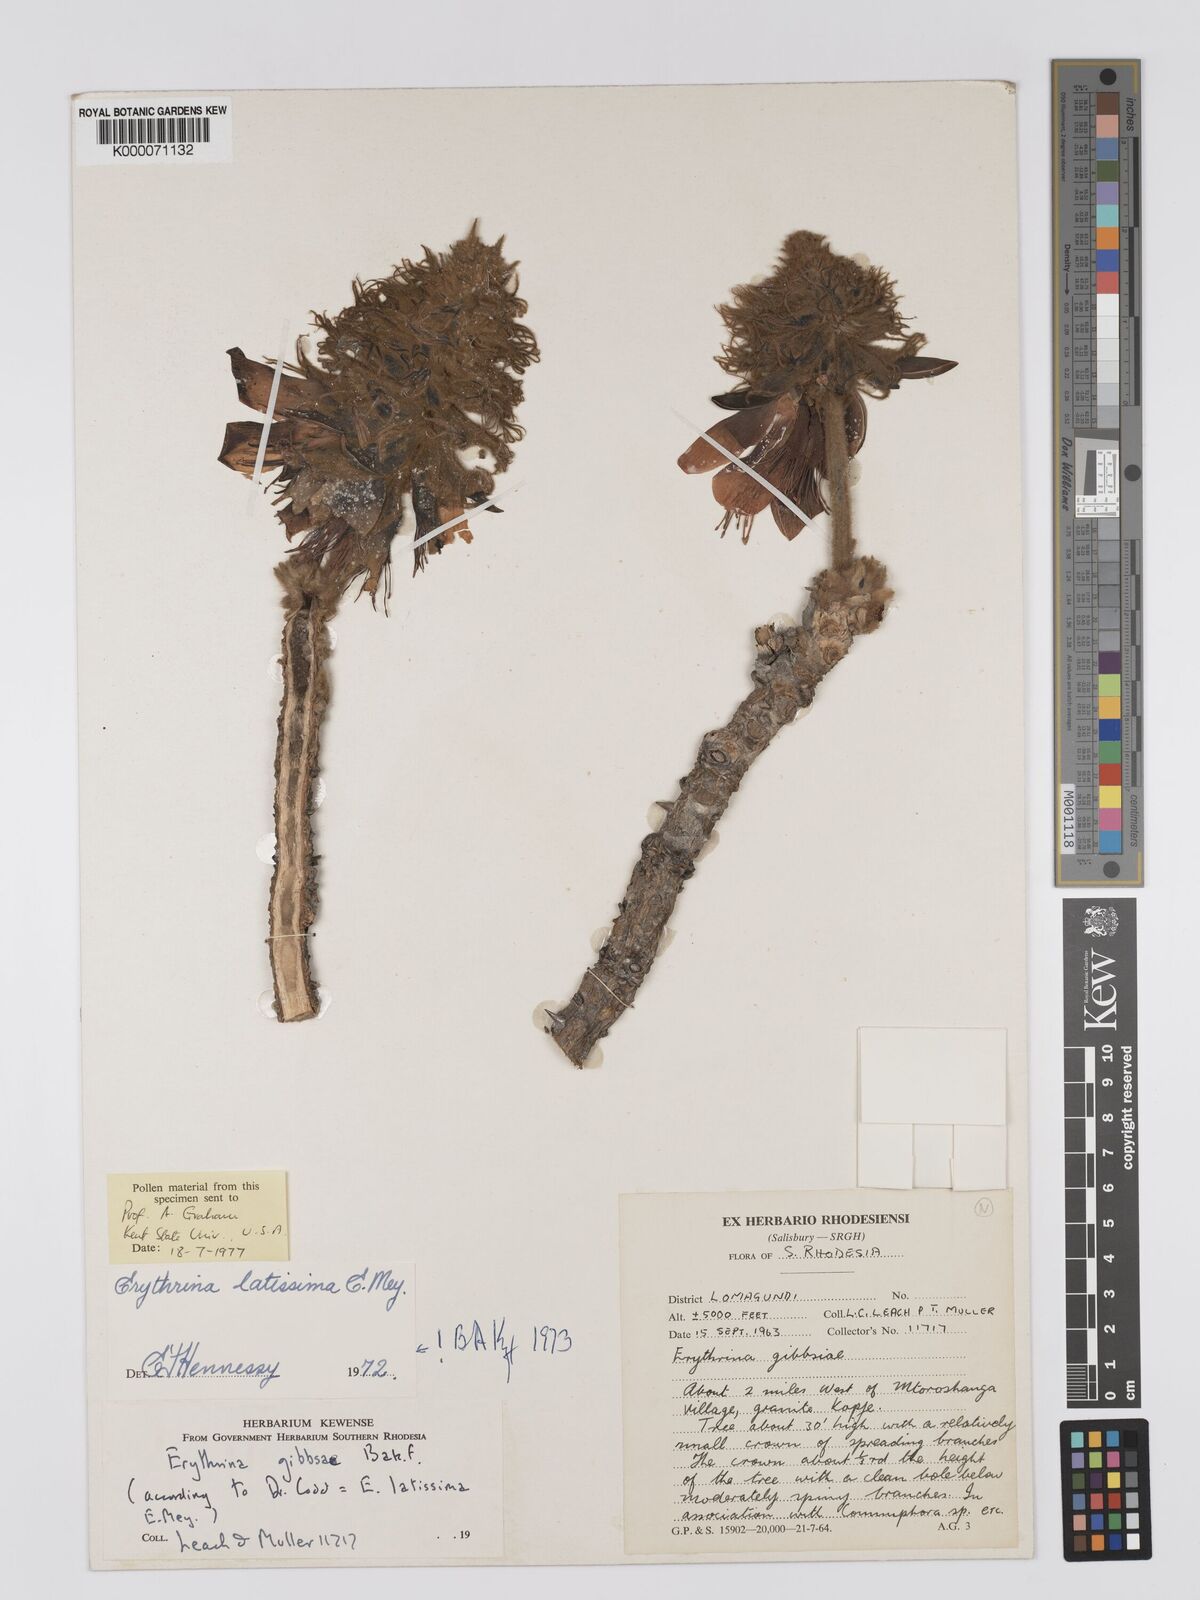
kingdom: Plantae
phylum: Tracheophyta
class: Magnoliopsida
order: Fabales
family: Fabaceae
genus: Erythrina
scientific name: Erythrina latissima
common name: Broad-leaved coral tree
